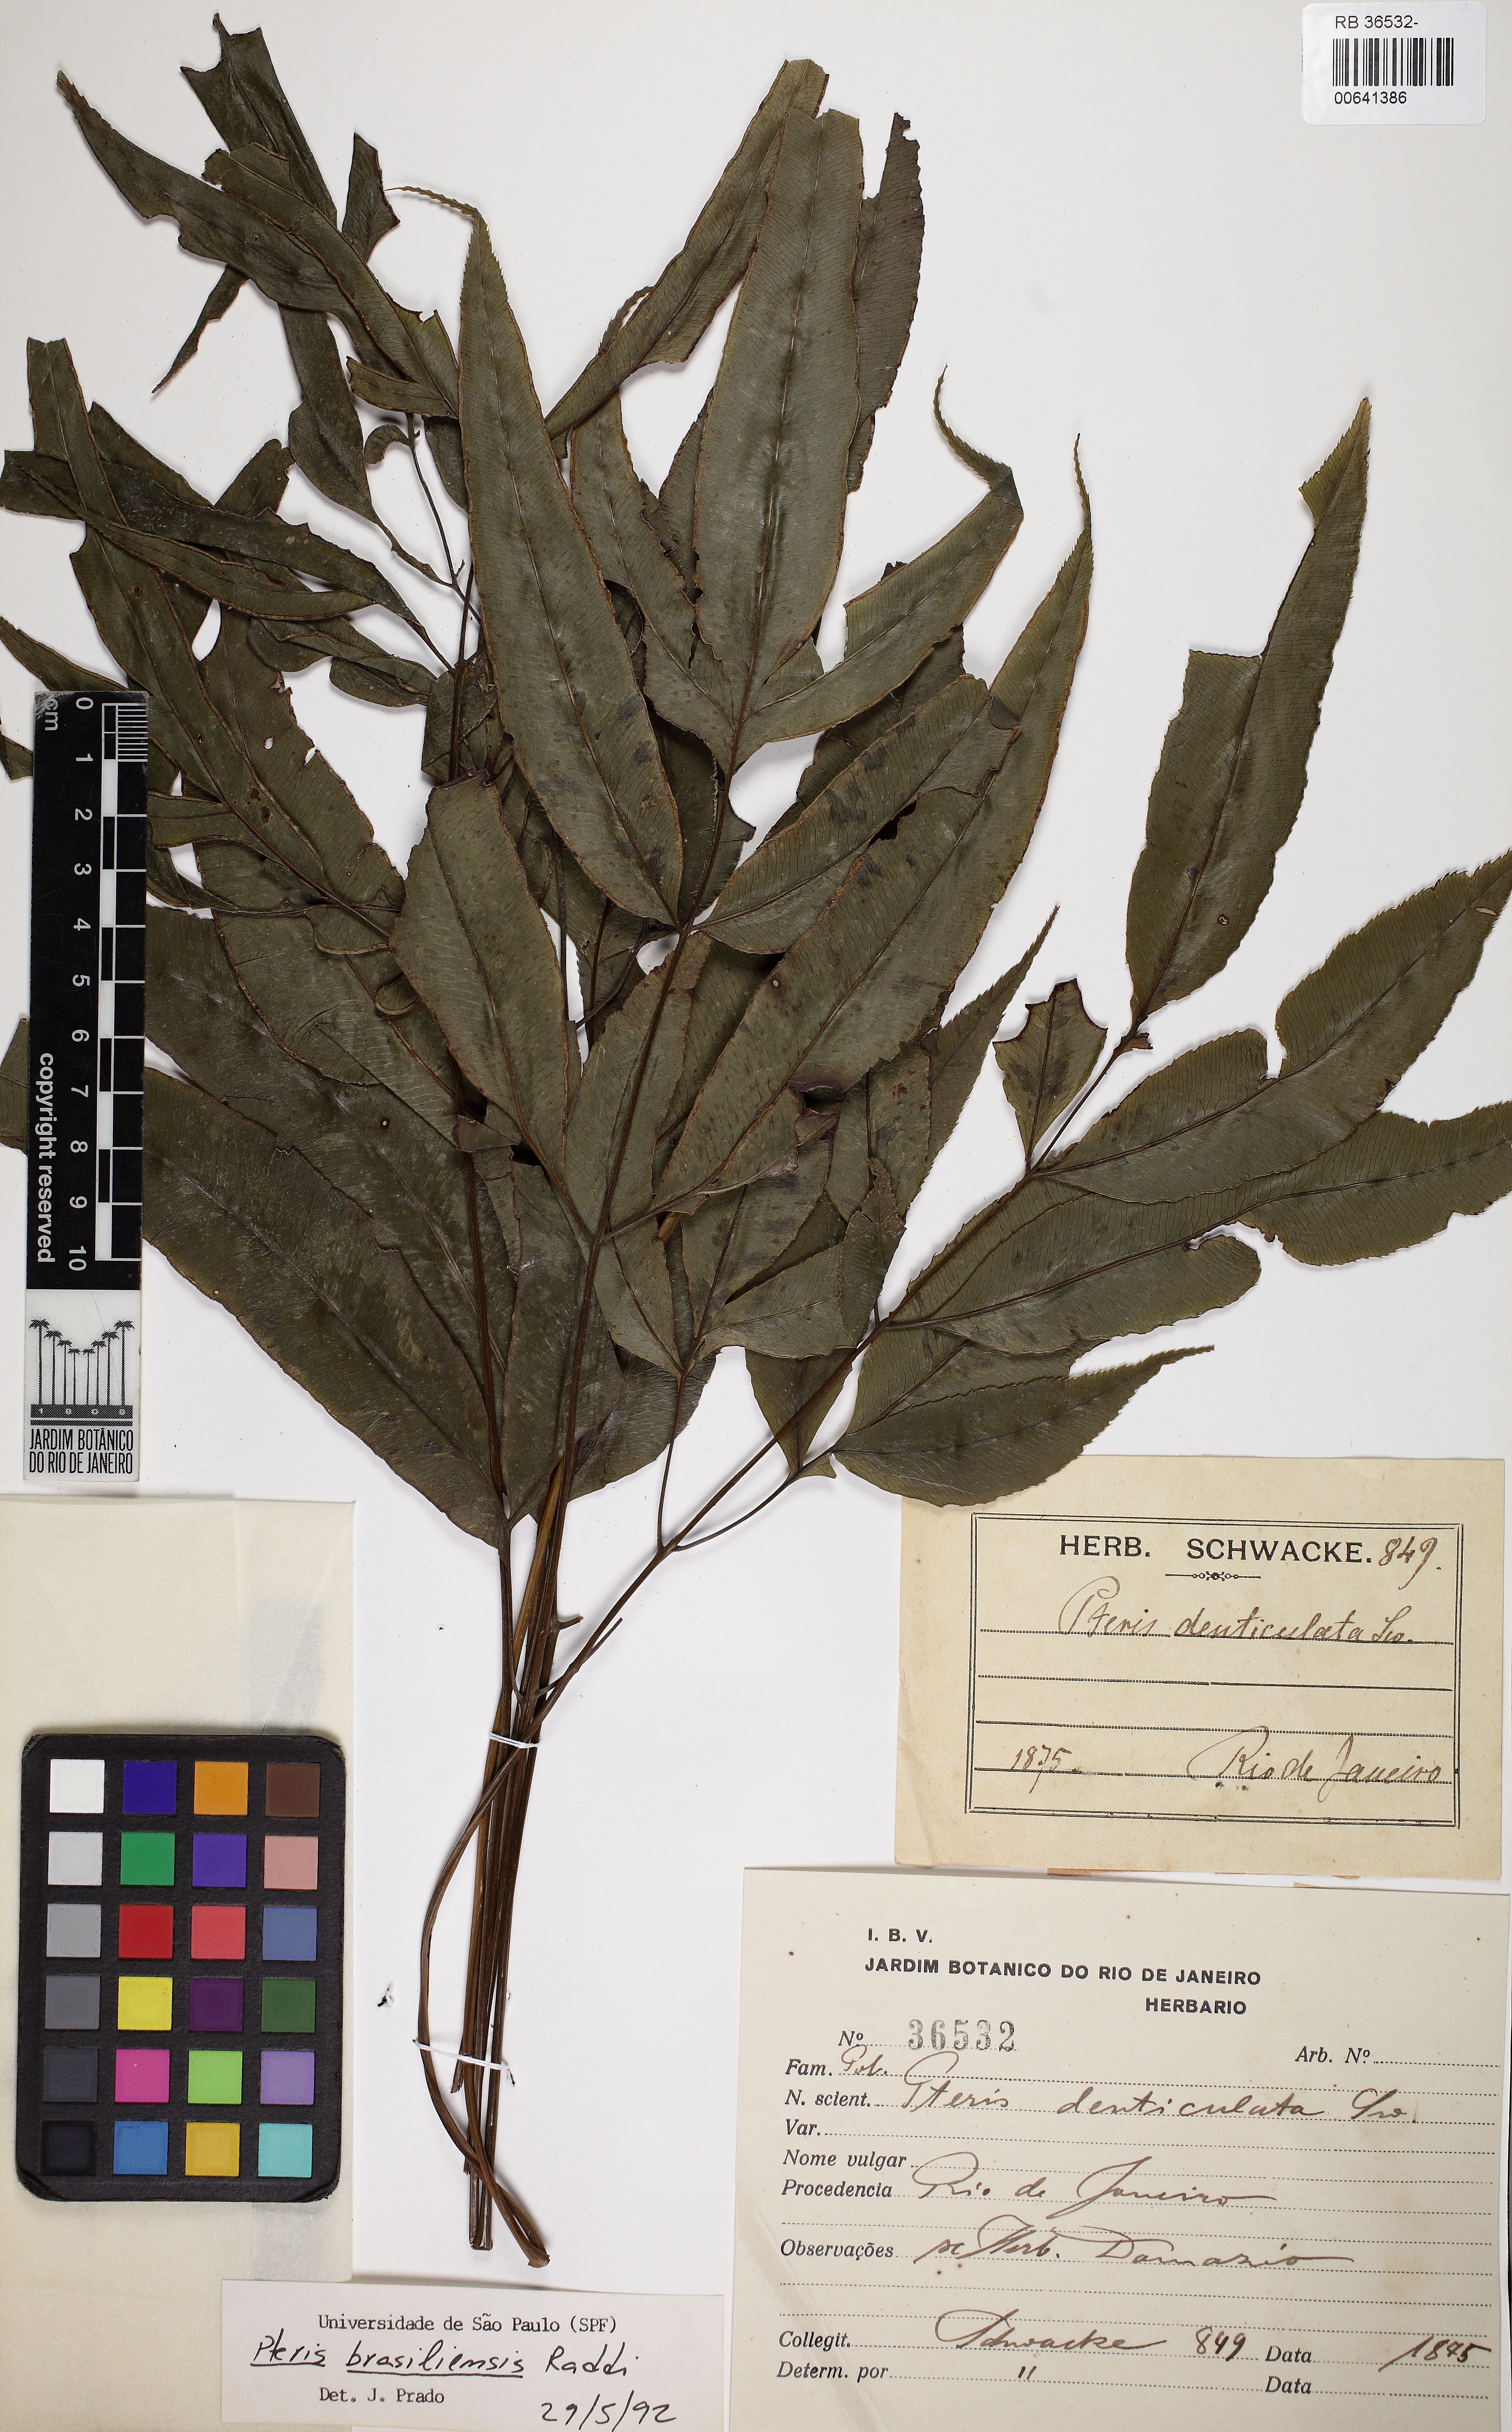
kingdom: Plantae
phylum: Tracheophyta
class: Polypodiopsida
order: Polypodiales
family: Pteridaceae
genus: Pteris
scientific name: Pteris brasiliensis
